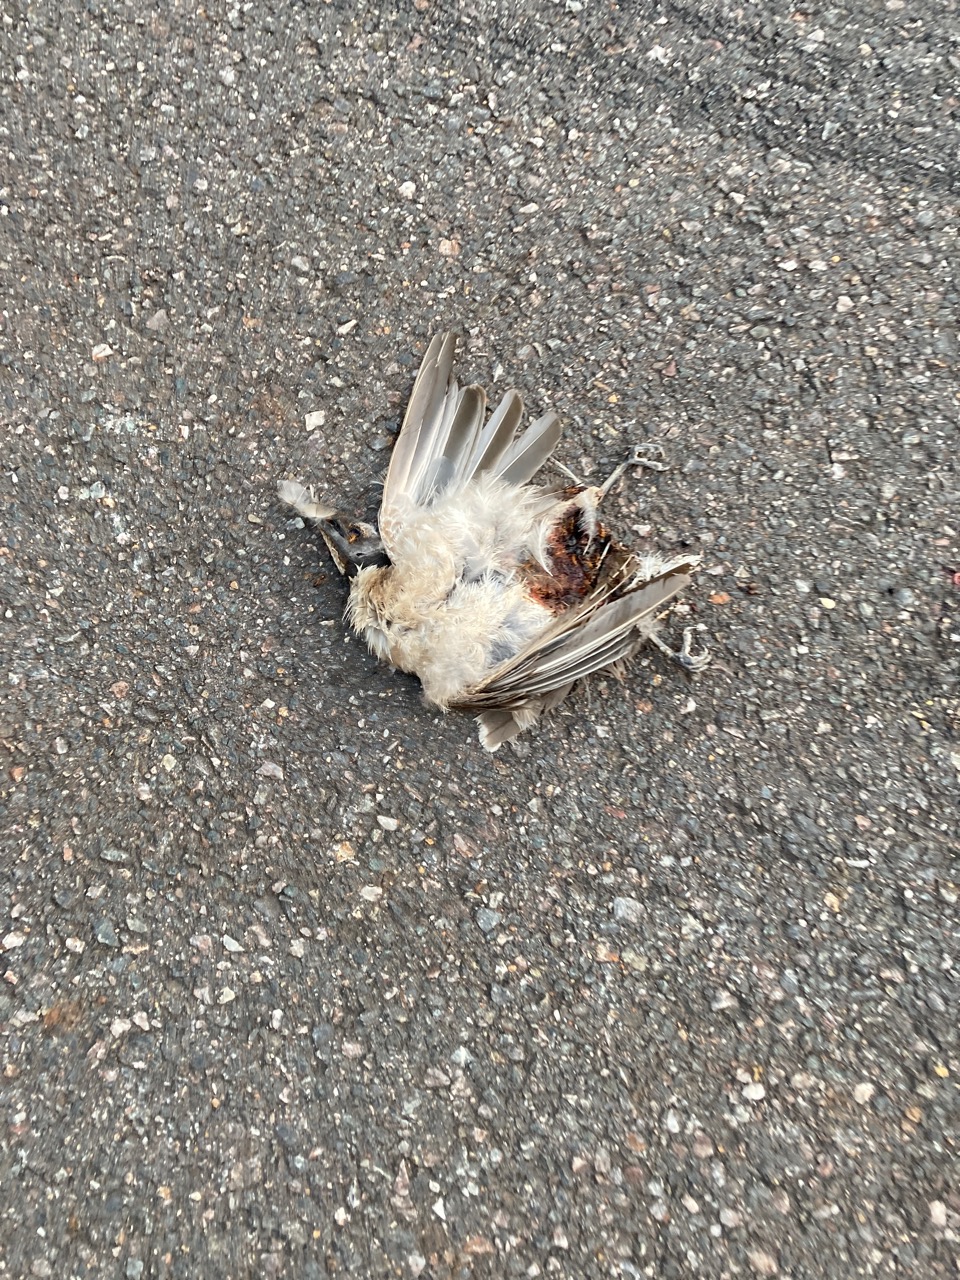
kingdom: Animalia
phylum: Chordata
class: Aves
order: Passeriformes
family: Meliphagidae
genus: Entomyzon
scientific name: Entomyzon cyanotis
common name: Blue-faced honeyeater
